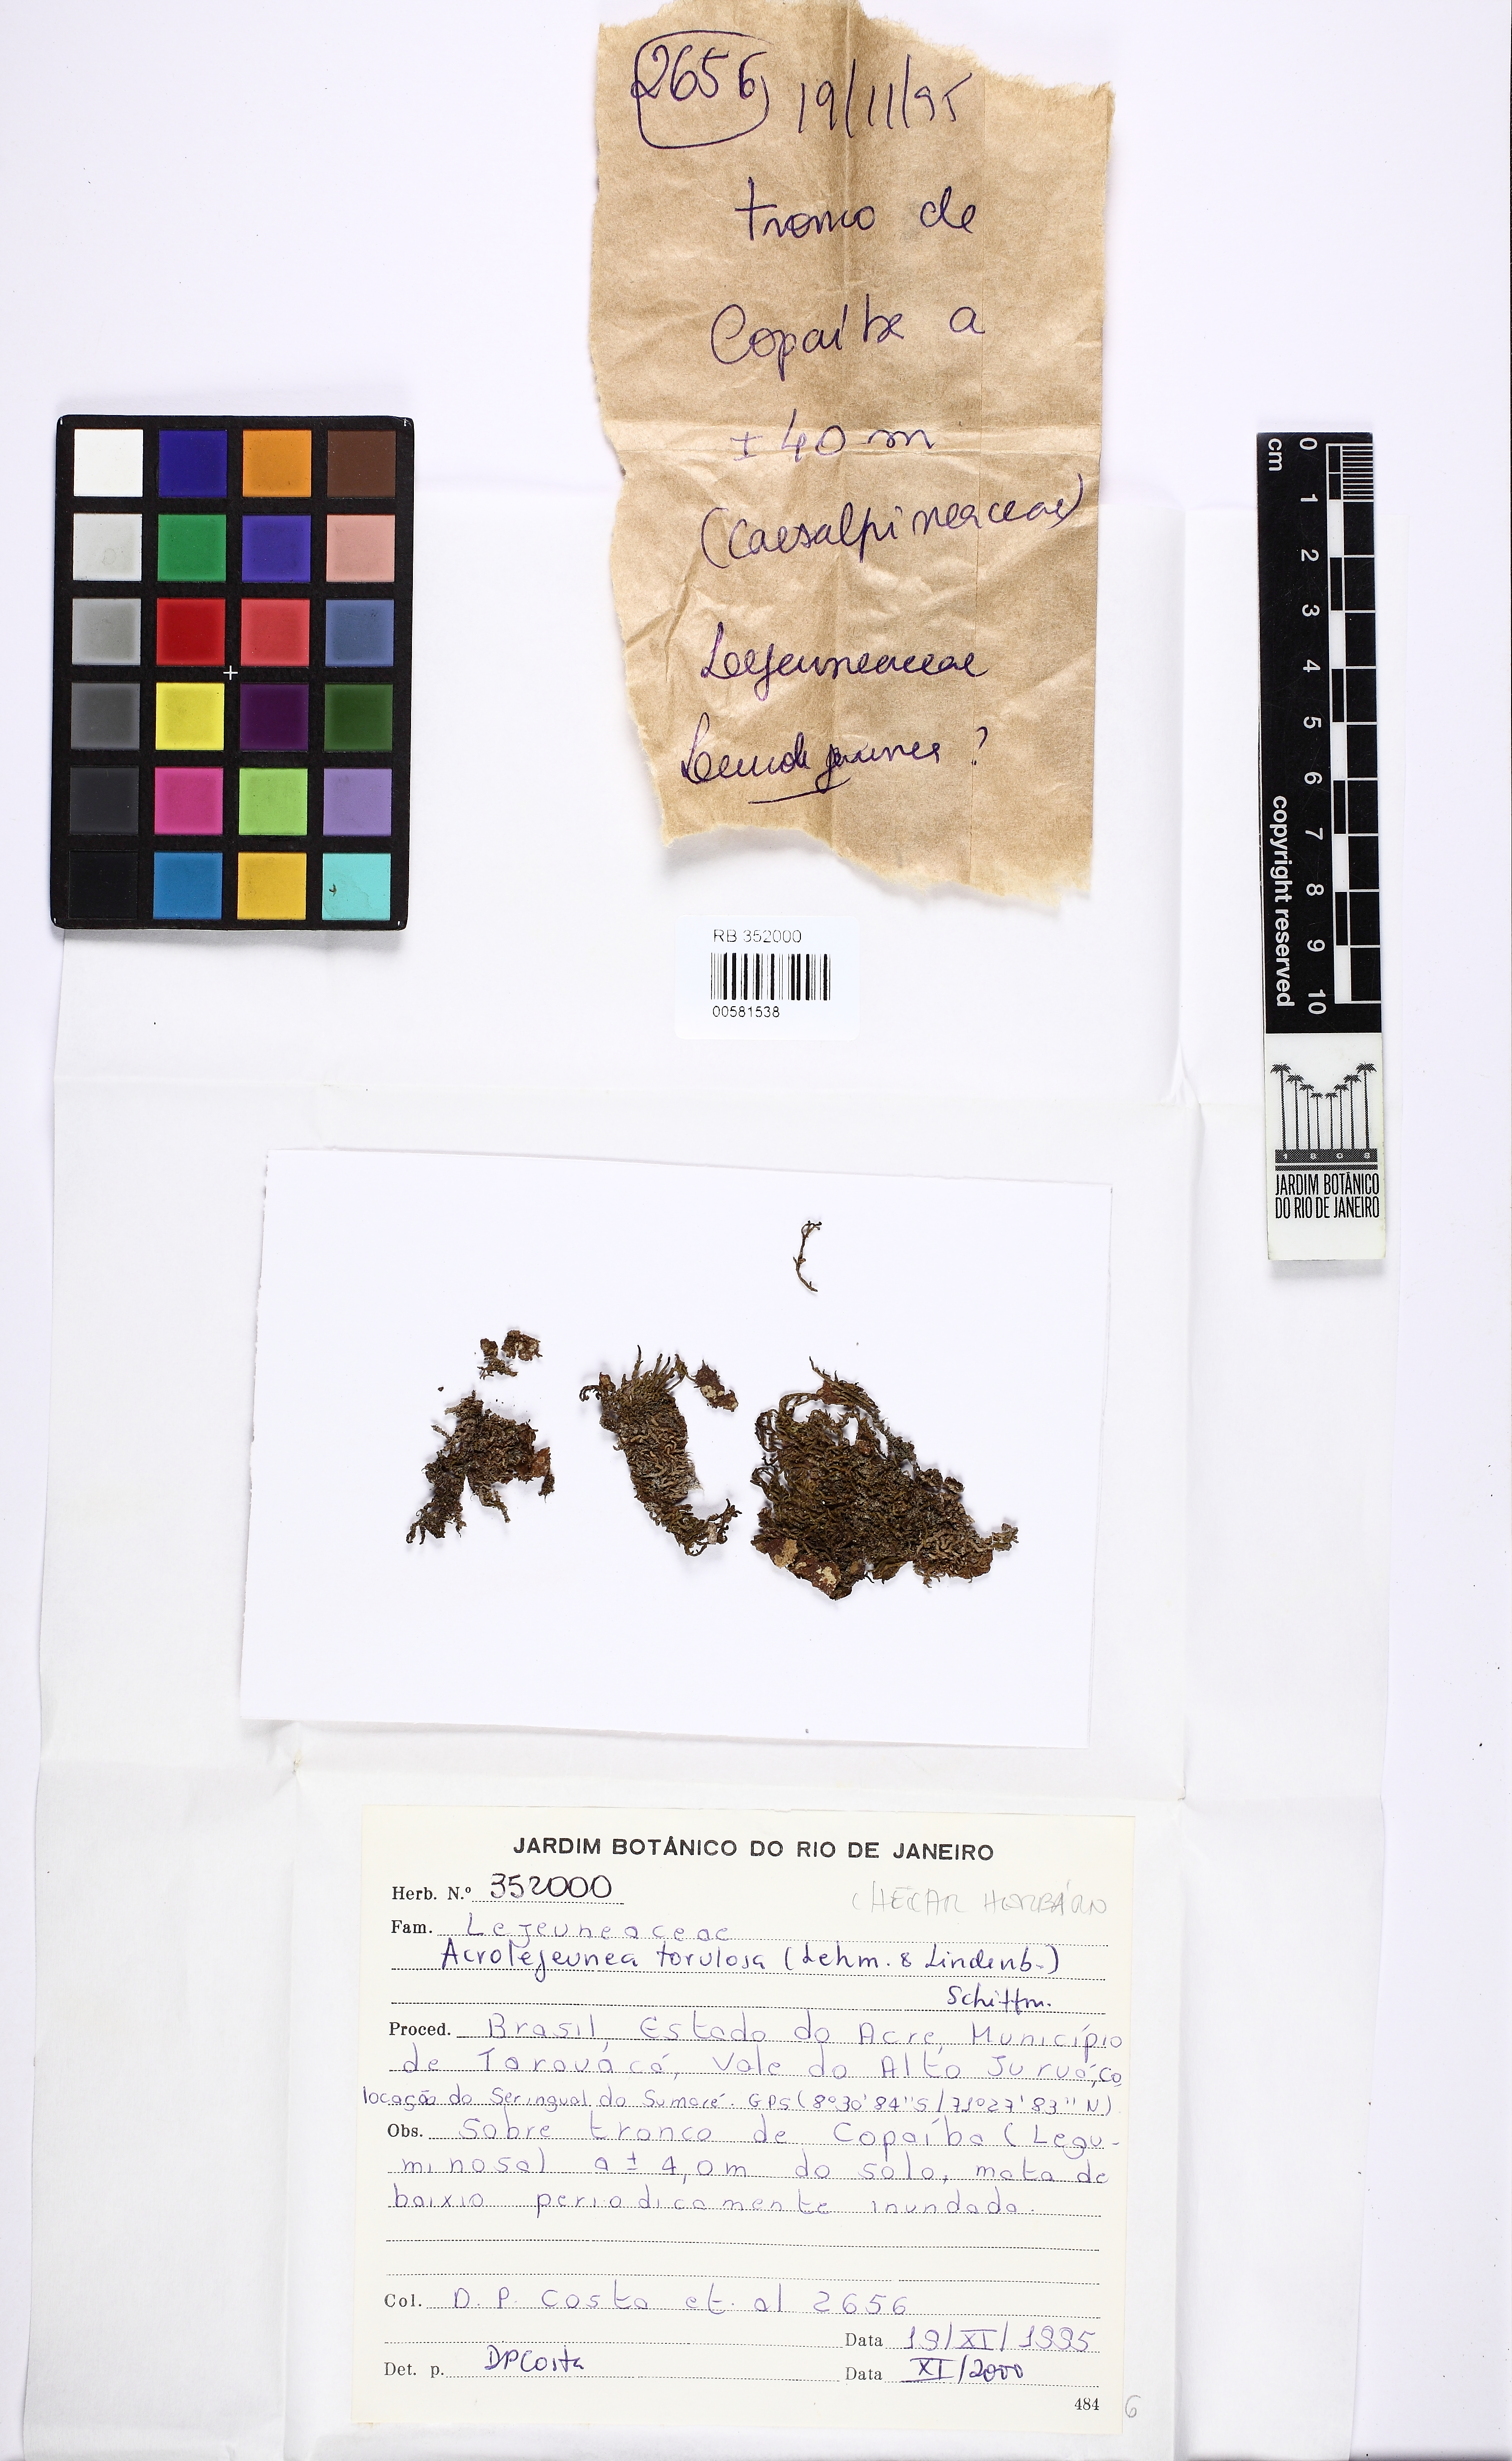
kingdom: Plantae
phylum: Marchantiophyta
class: Jungermanniopsida
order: Porellales
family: Lejeuneaceae
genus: Acrolejeunea
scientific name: Acrolejeunea torulosa
